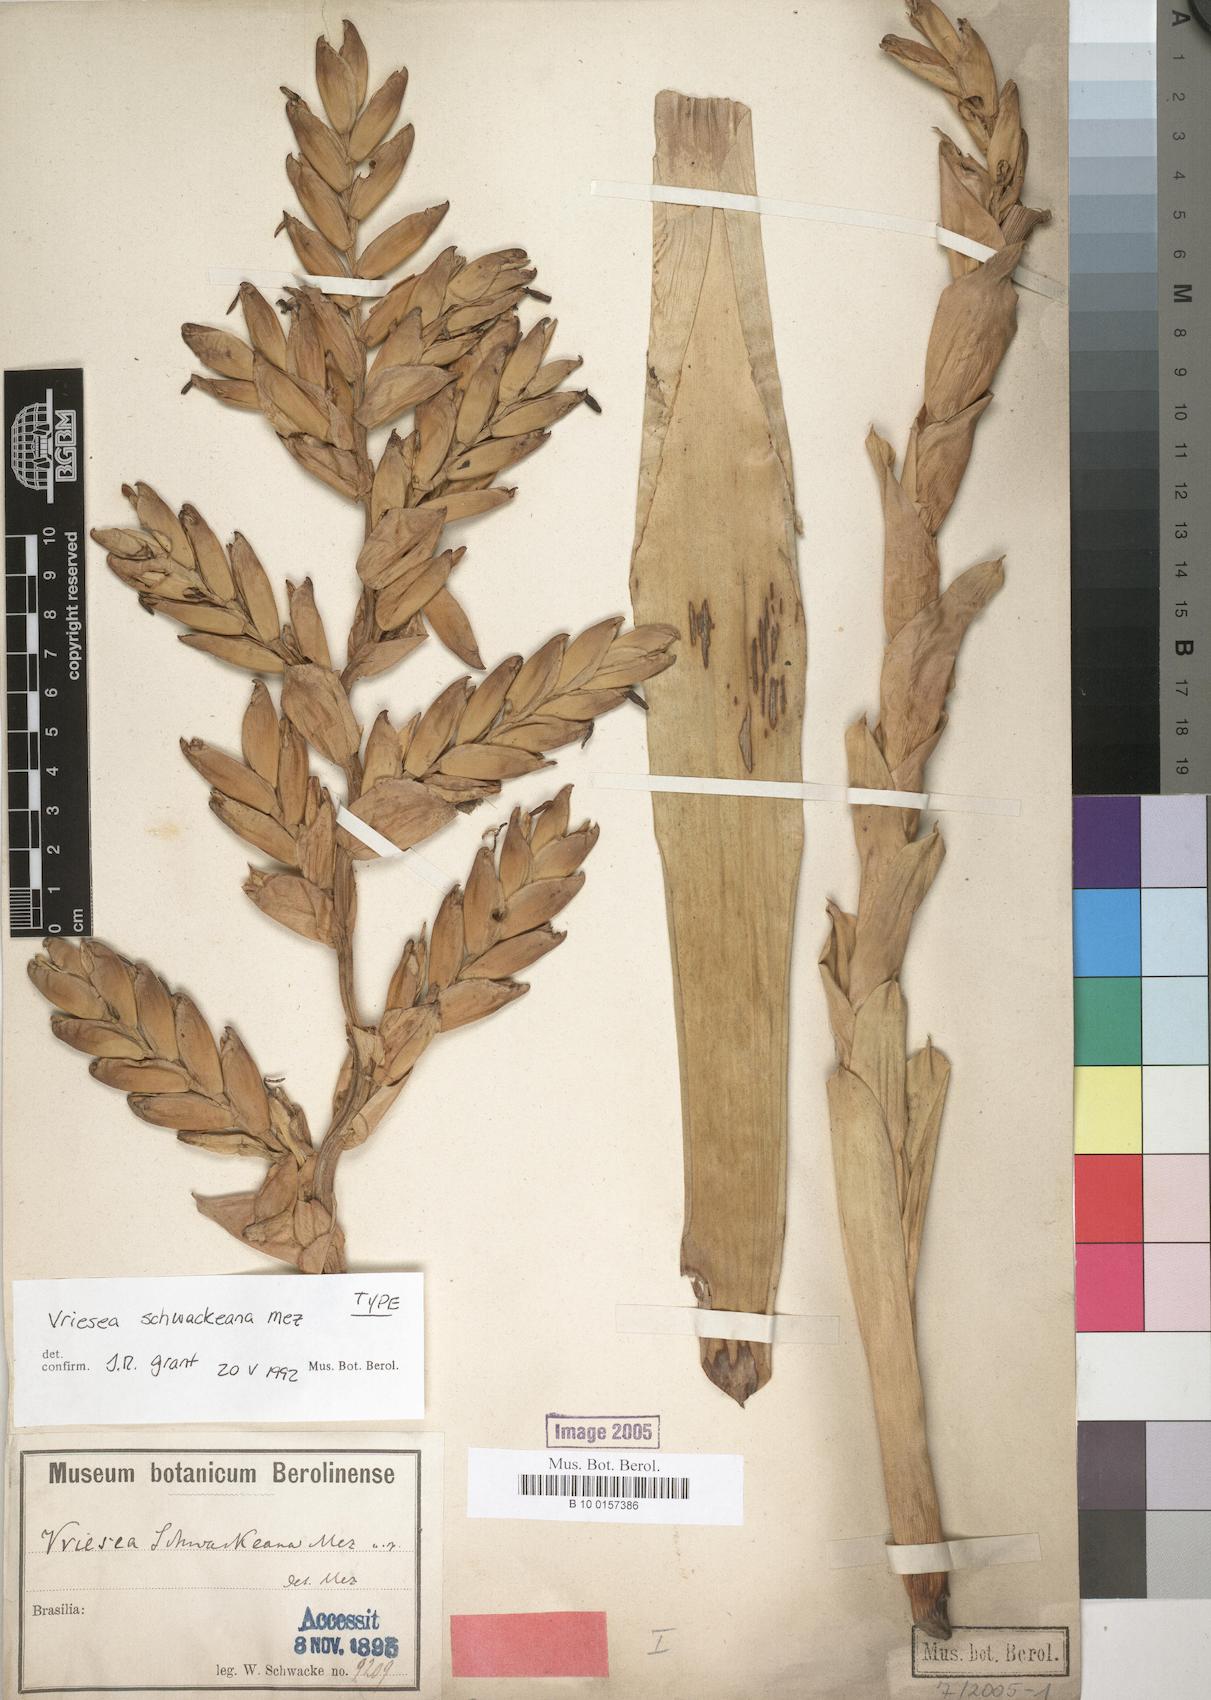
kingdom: Plantae
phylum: Tracheophyta
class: Liliopsida
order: Poales
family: Bromeliaceae
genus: Vriesea
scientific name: Vriesea schwackeana
